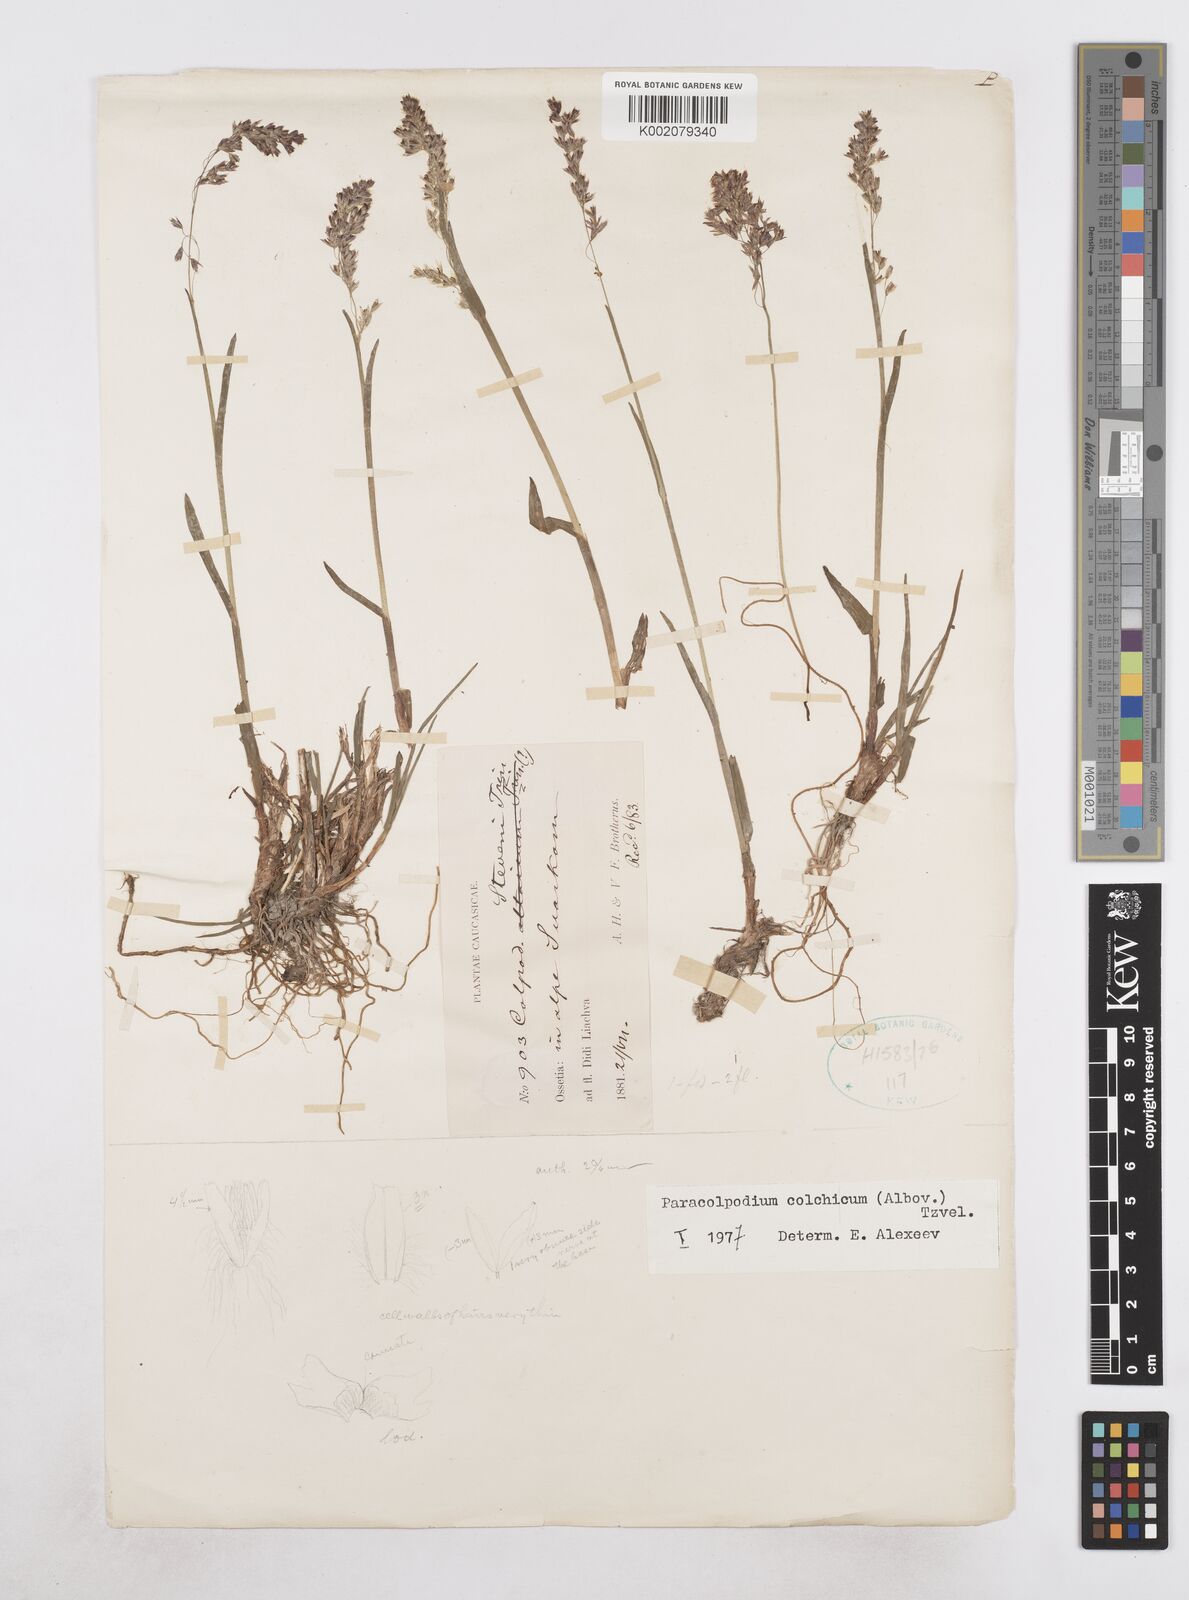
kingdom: Plantae
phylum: Tracheophyta
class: Liliopsida
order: Poales
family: Poaceae
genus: Paracolpodium
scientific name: Paracolpodium colchicum
